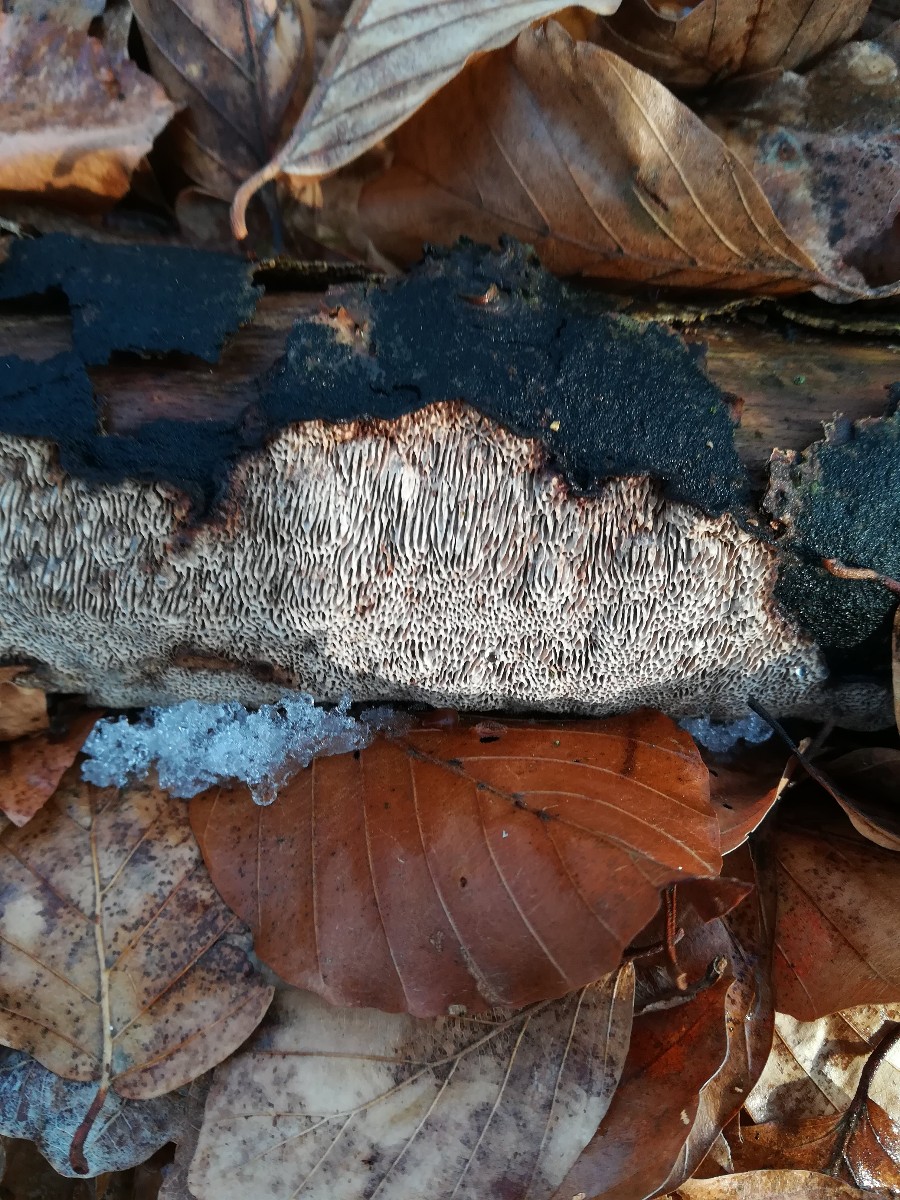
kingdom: Fungi
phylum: Basidiomycota
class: Agaricomycetes
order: Polyporales
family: Polyporaceae
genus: Podofomes
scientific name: Podofomes mollis
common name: blød begporesvamp
